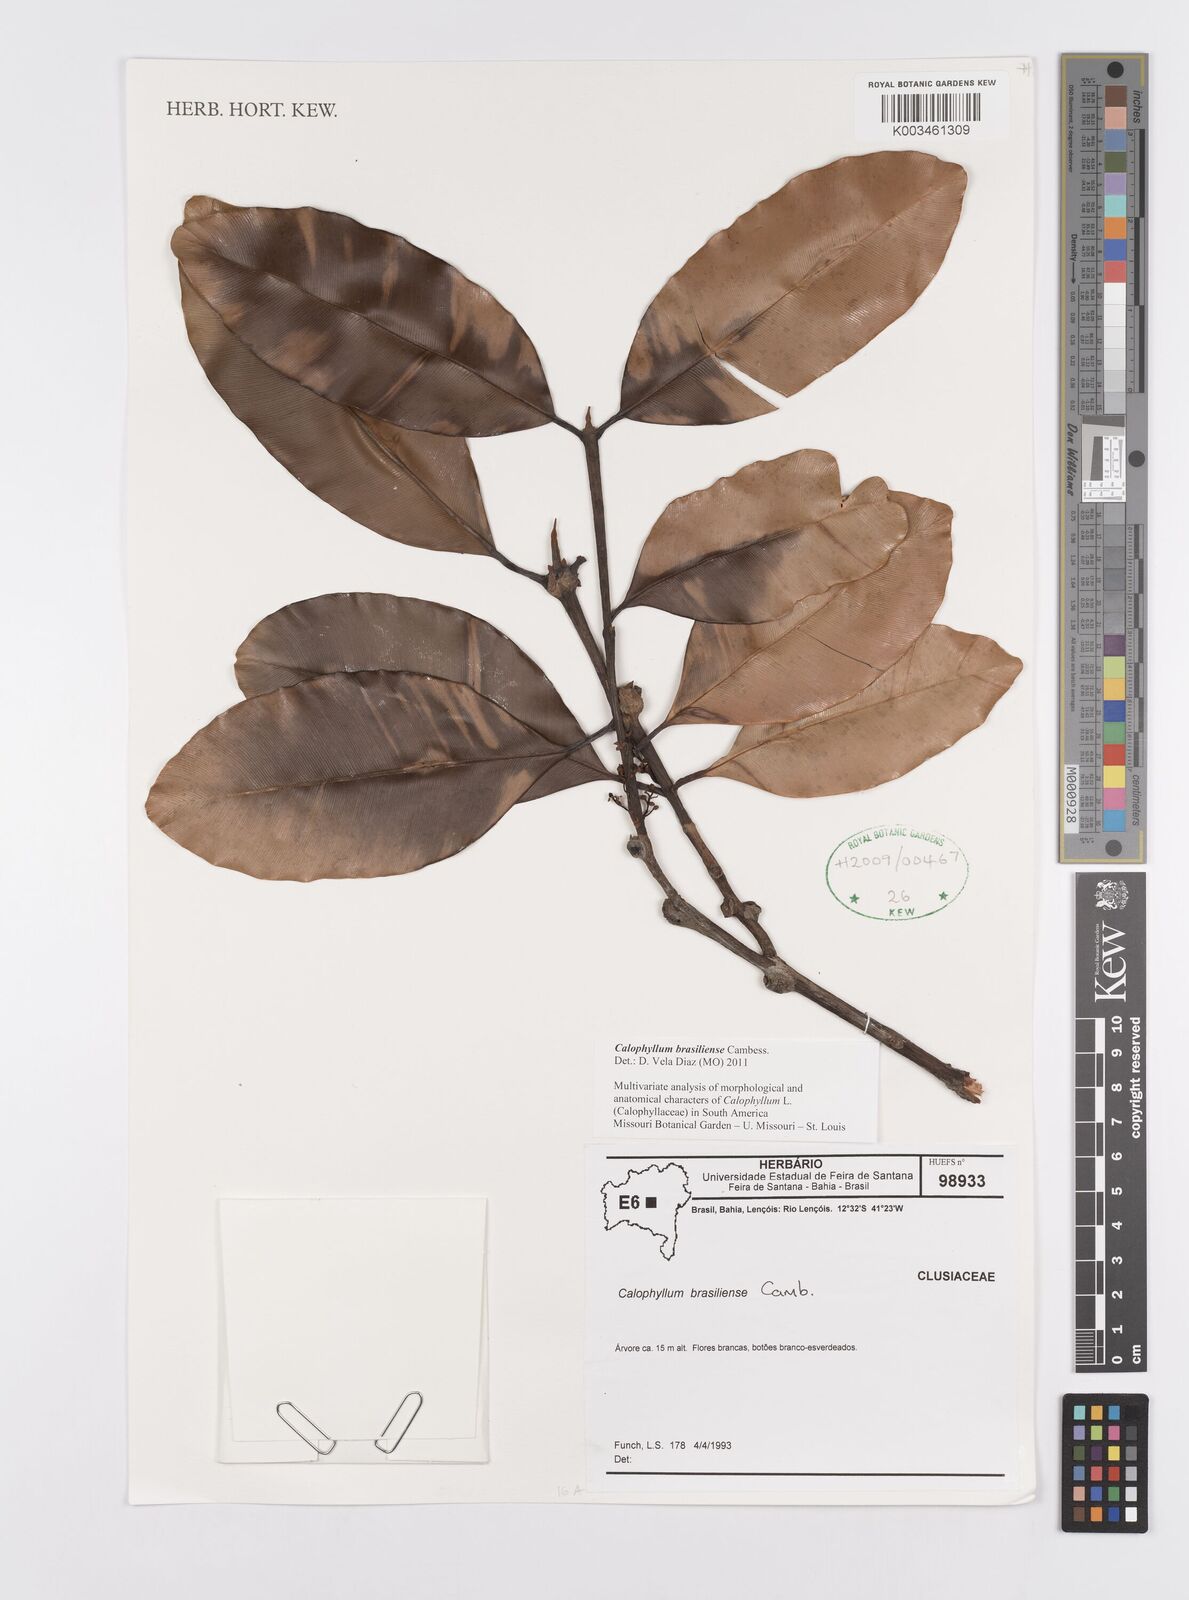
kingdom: Plantae
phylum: Tracheophyta
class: Magnoliopsida
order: Malpighiales
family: Calophyllaceae
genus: Calophyllum
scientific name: Calophyllum brasiliense
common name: Santa maria
